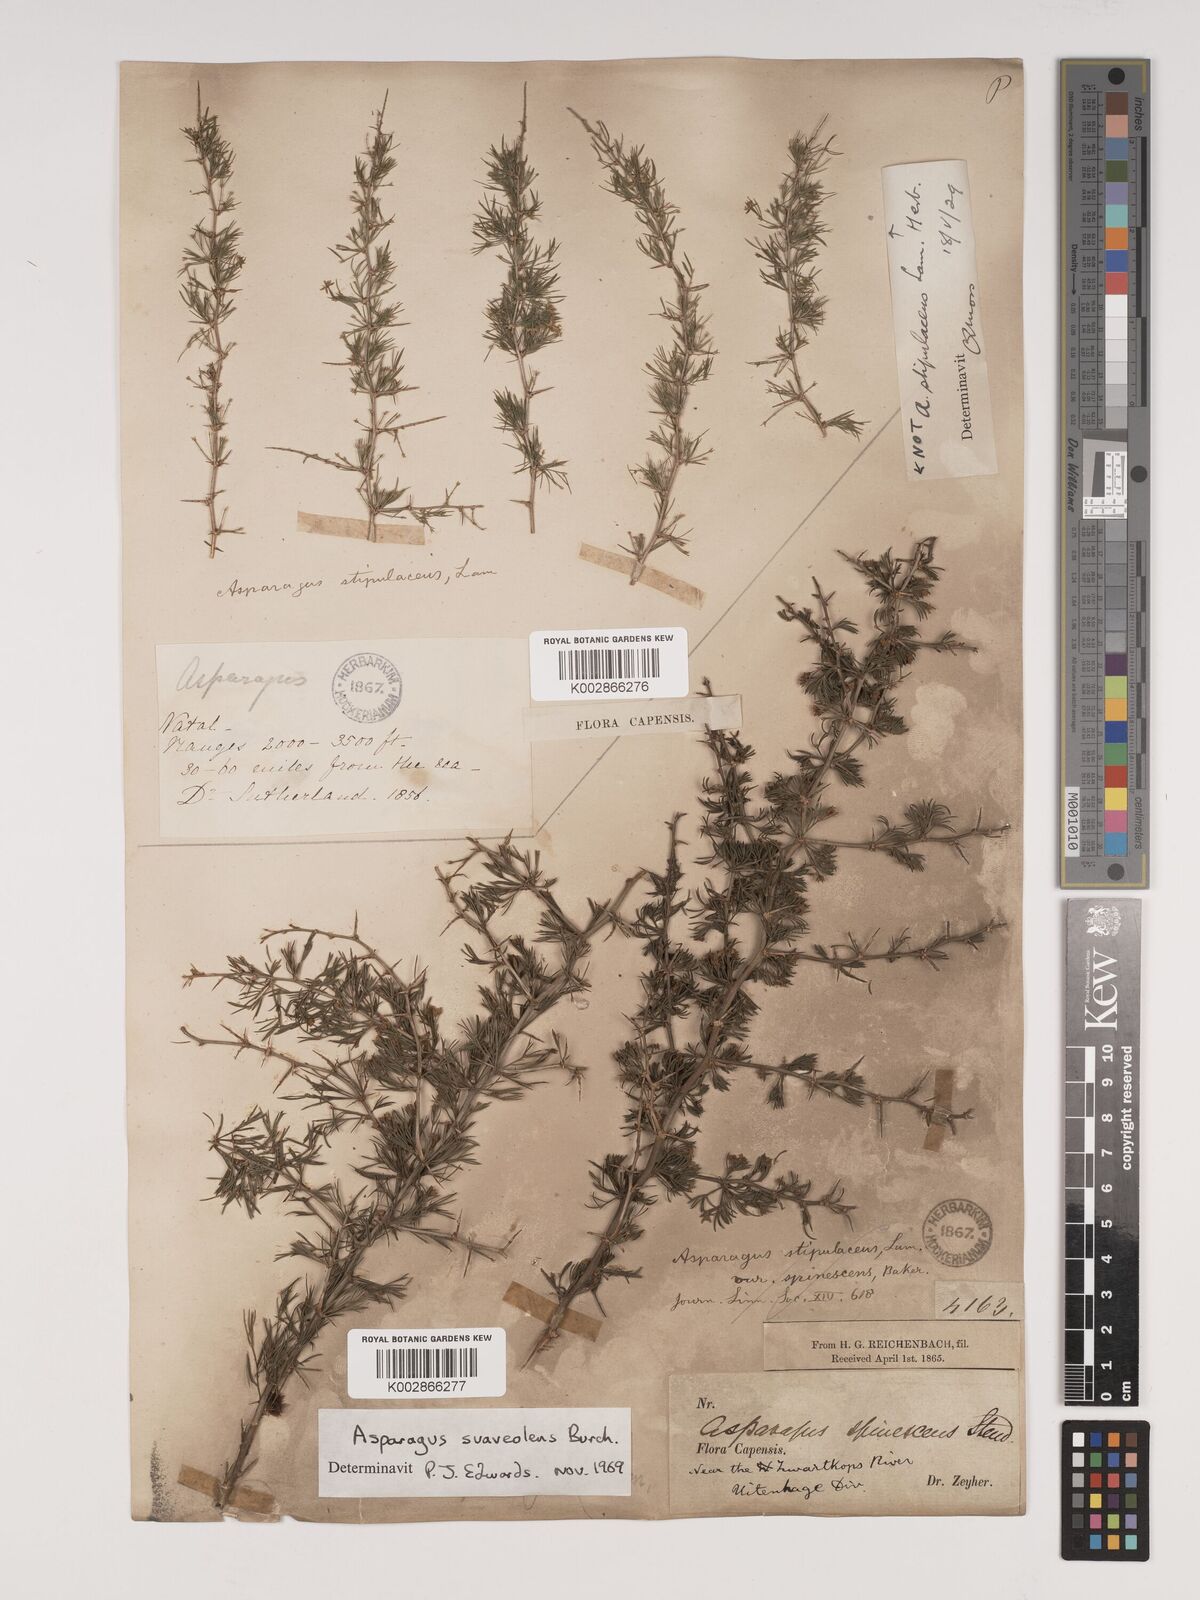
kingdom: Plantae
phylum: Tracheophyta
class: Liliopsida
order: Asparagales
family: Asparagaceae
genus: Asparagus
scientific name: Asparagus suaveolens
